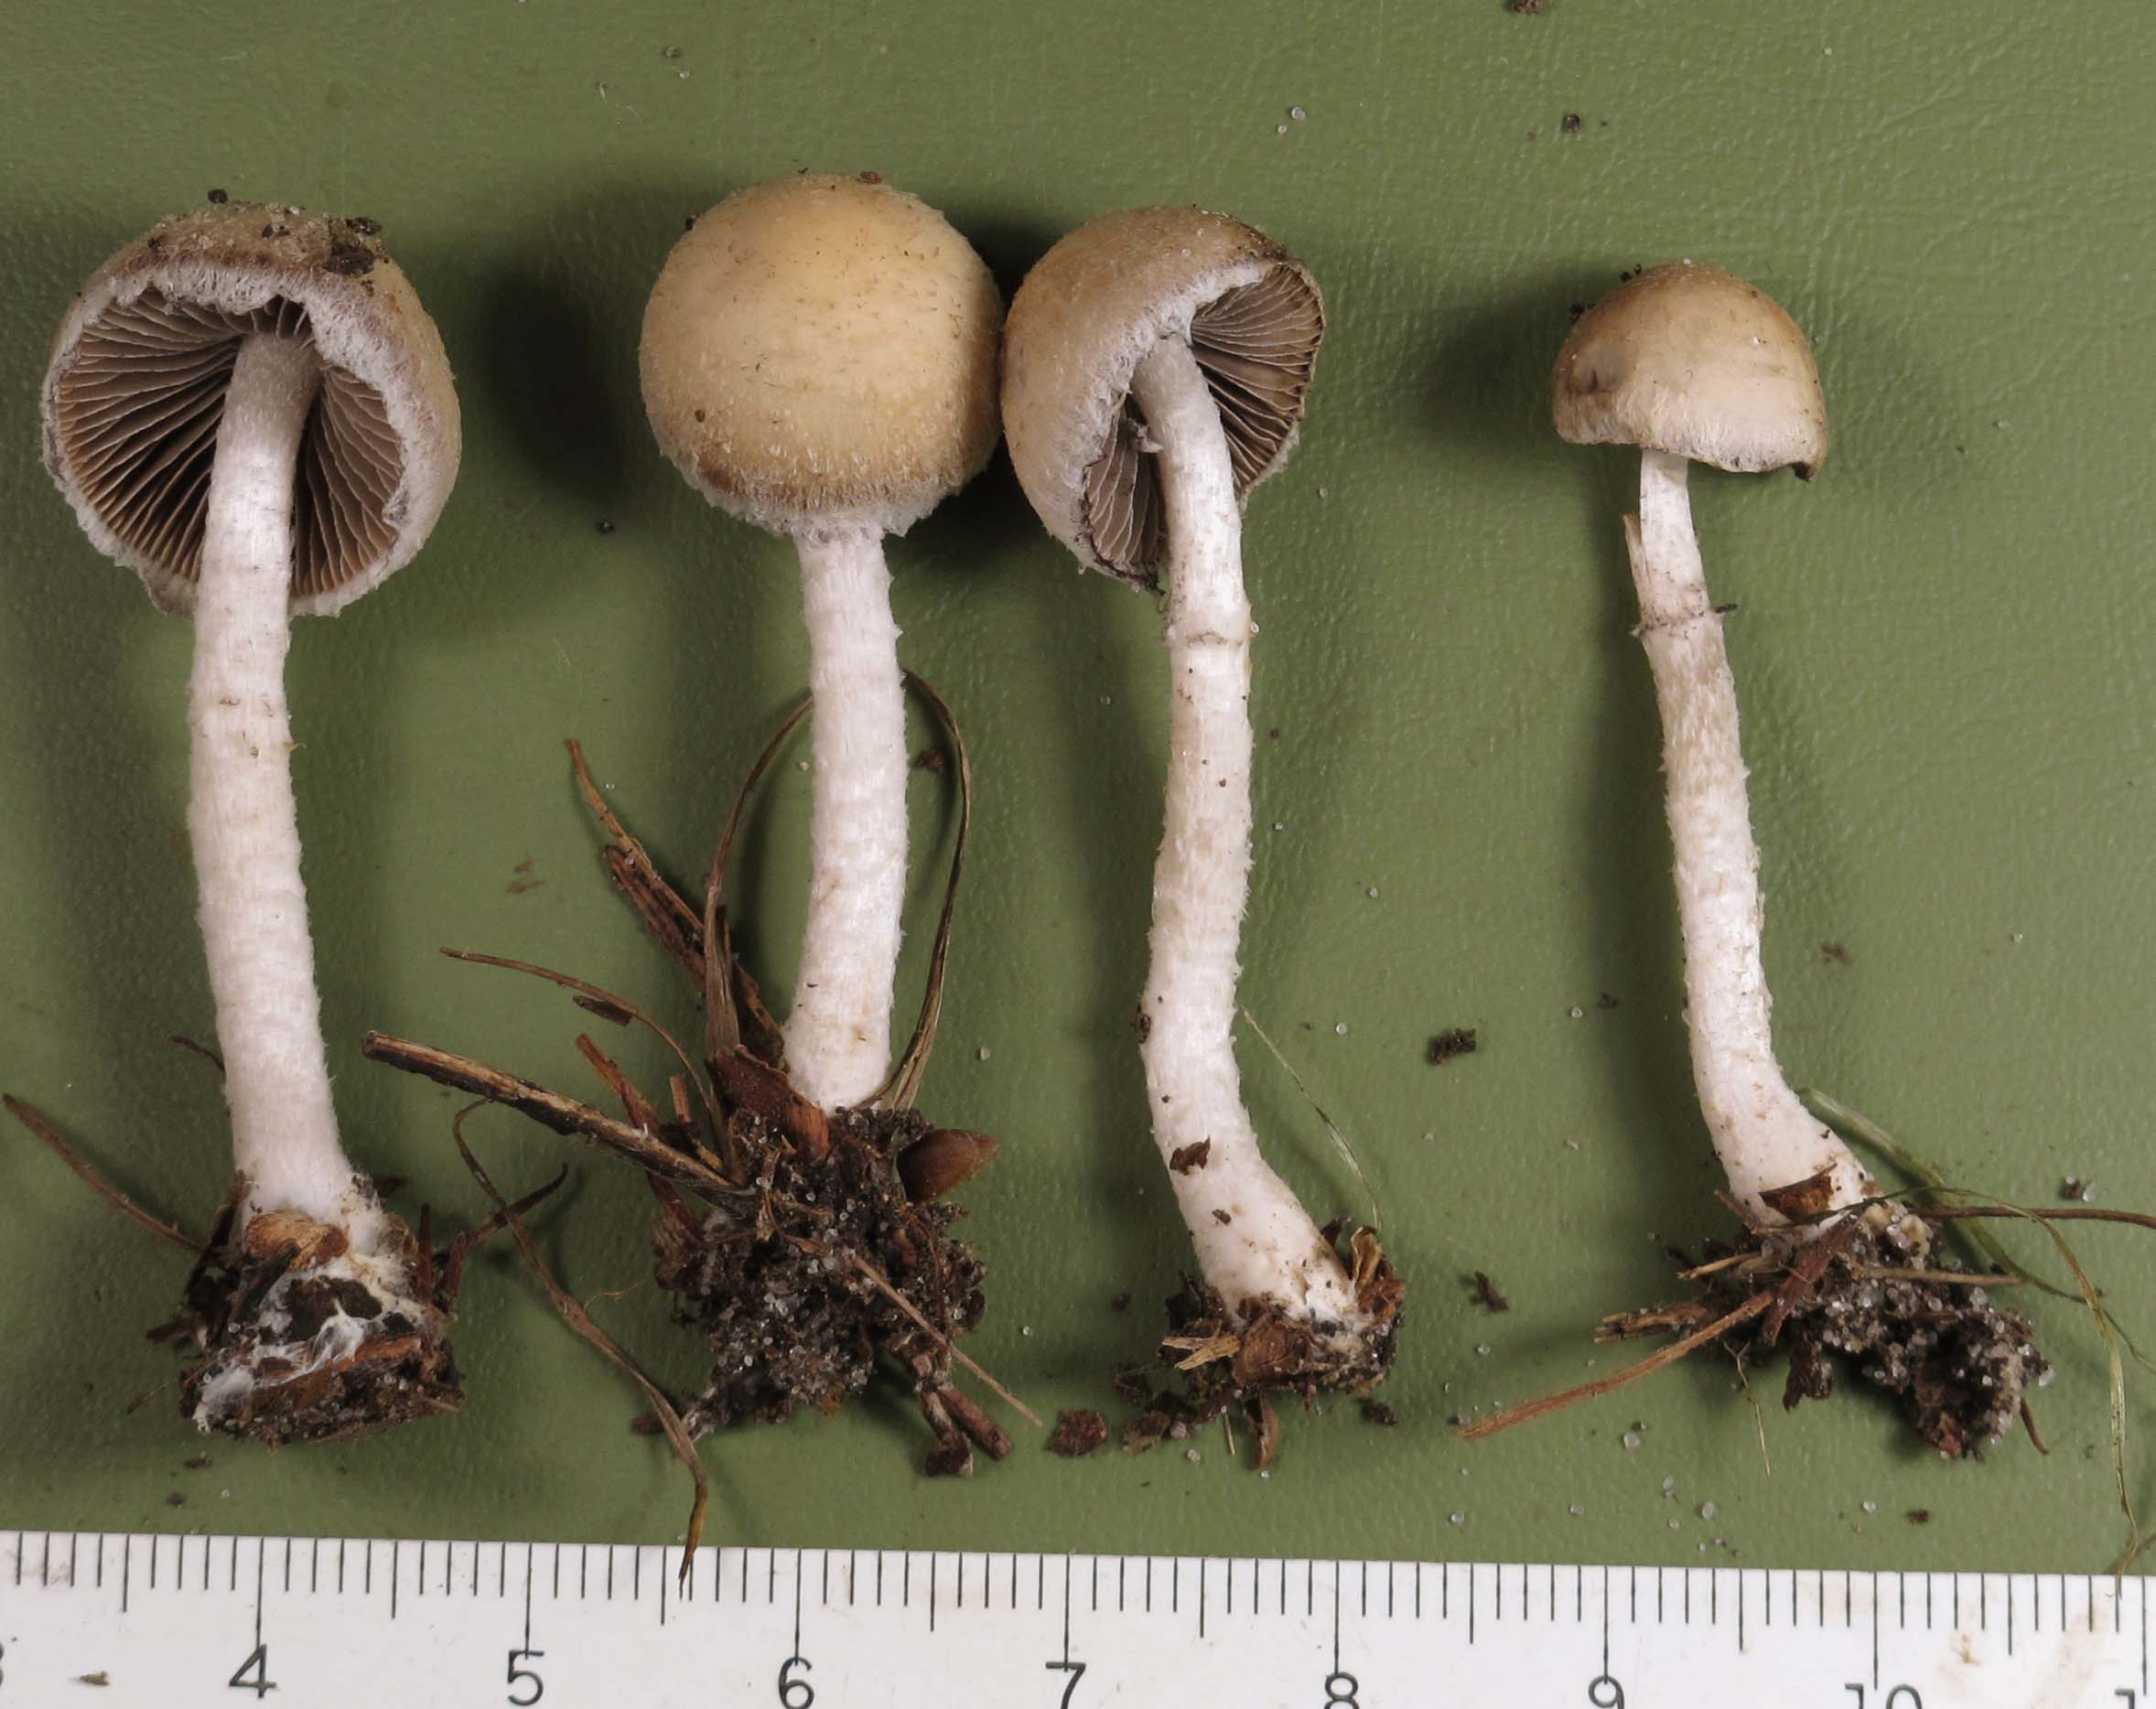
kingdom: Fungi
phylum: Basidiomycota
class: Agaricomycetes
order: Agaricales
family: Psathyrellaceae
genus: Psathyrella
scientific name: Psathyrella fibrillosa
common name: almindelig mørkhat
